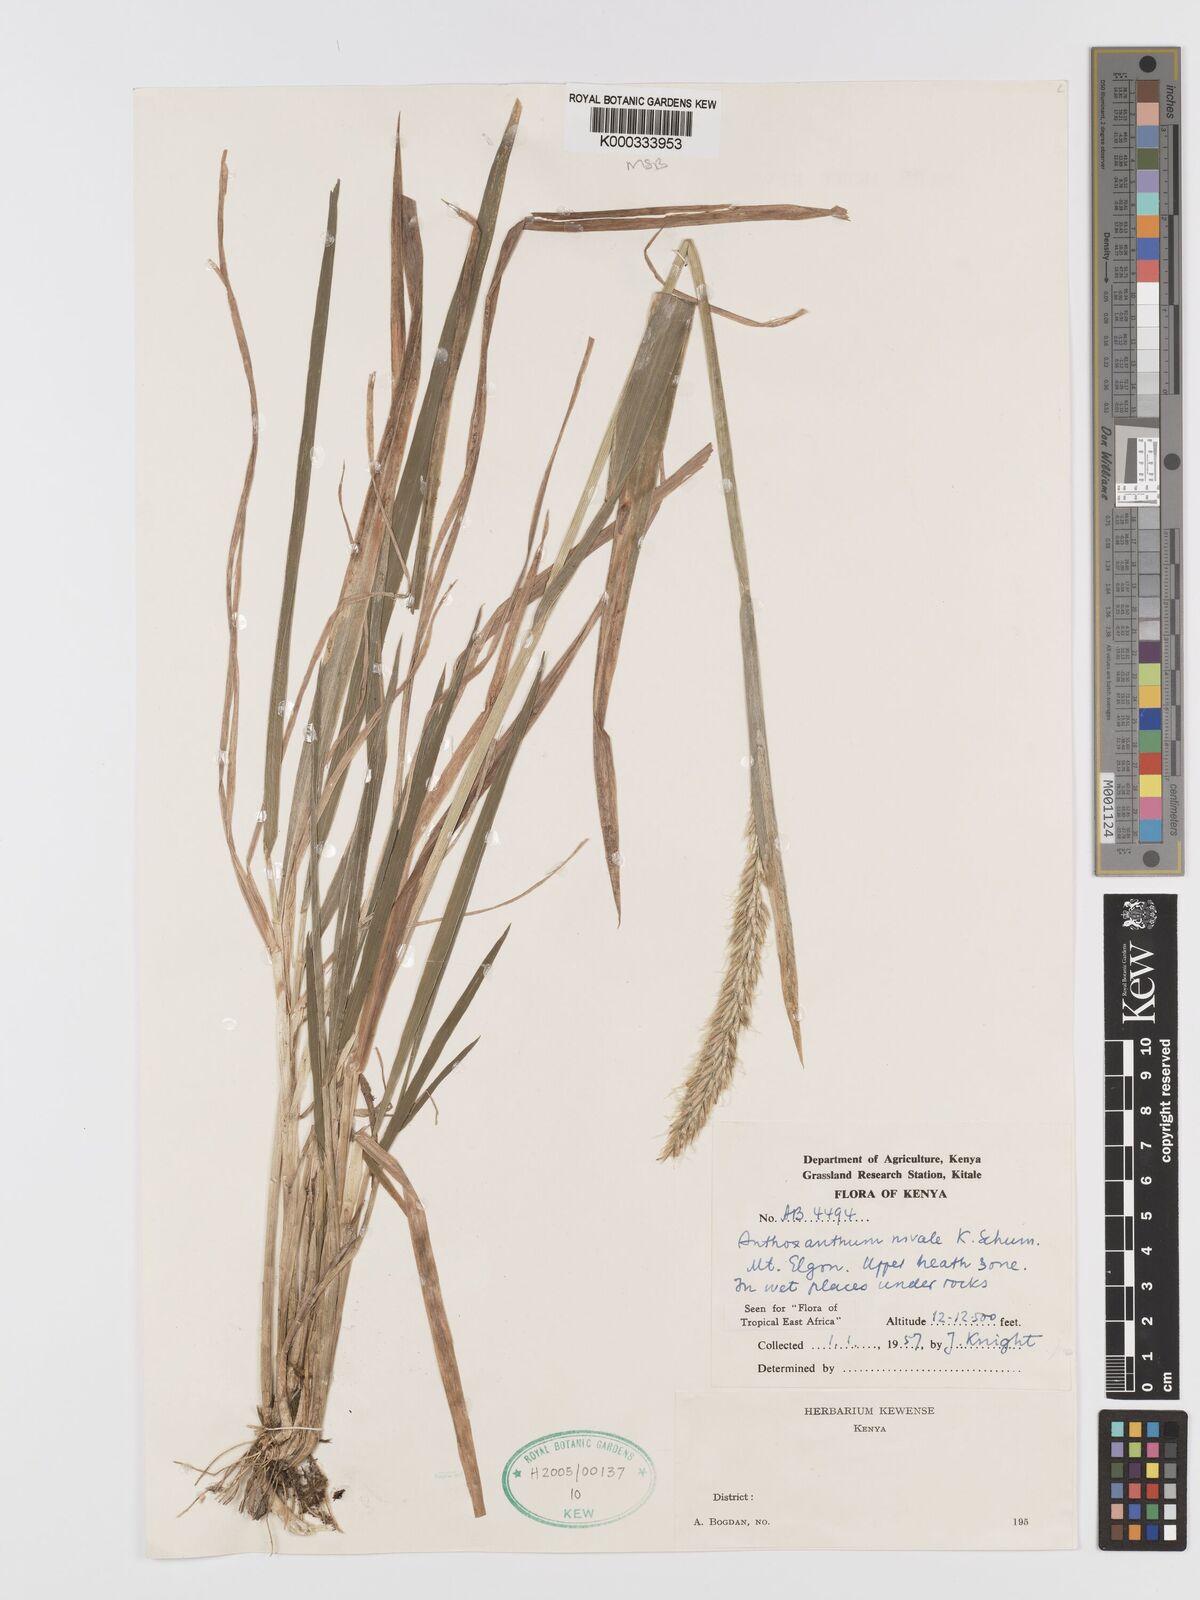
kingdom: Plantae
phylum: Tracheophyta
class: Liliopsida
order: Poales
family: Poaceae
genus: Anthoxanthum
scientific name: Anthoxanthum
